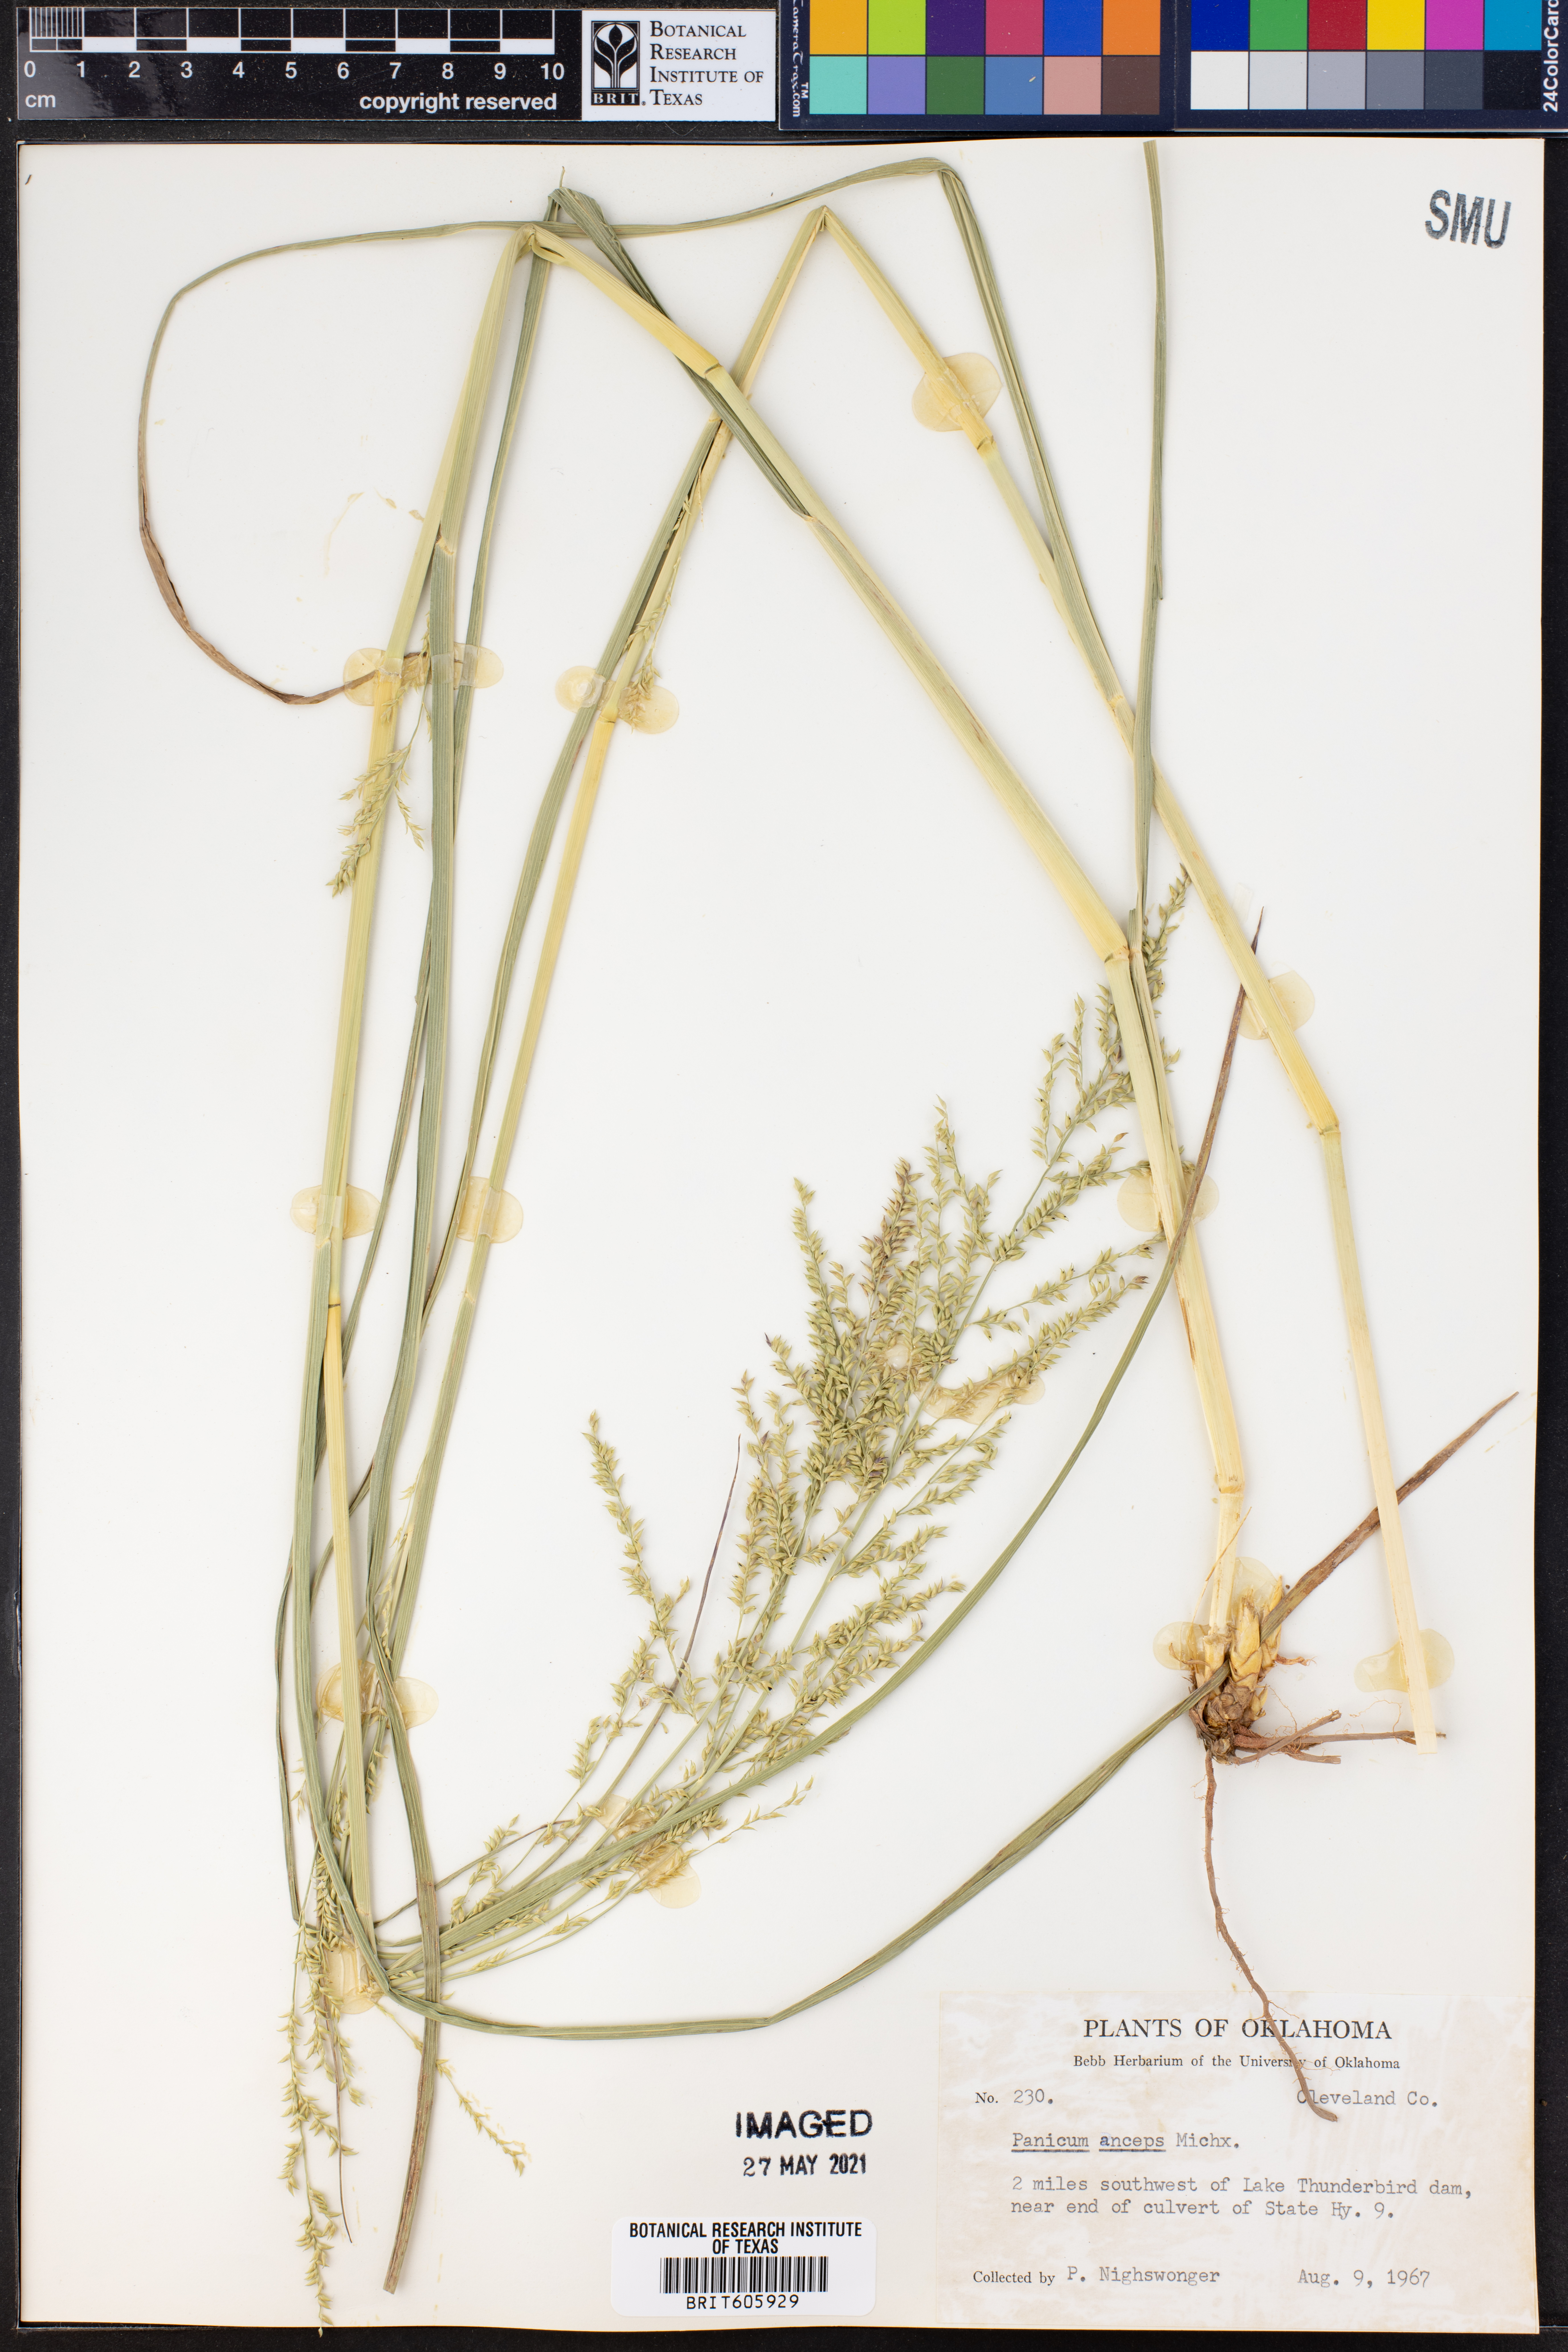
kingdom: Plantae
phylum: Tracheophyta
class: Liliopsida
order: Poales
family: Poaceae
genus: Coleataenia
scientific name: Coleataenia anceps
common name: Beaked panic grass
